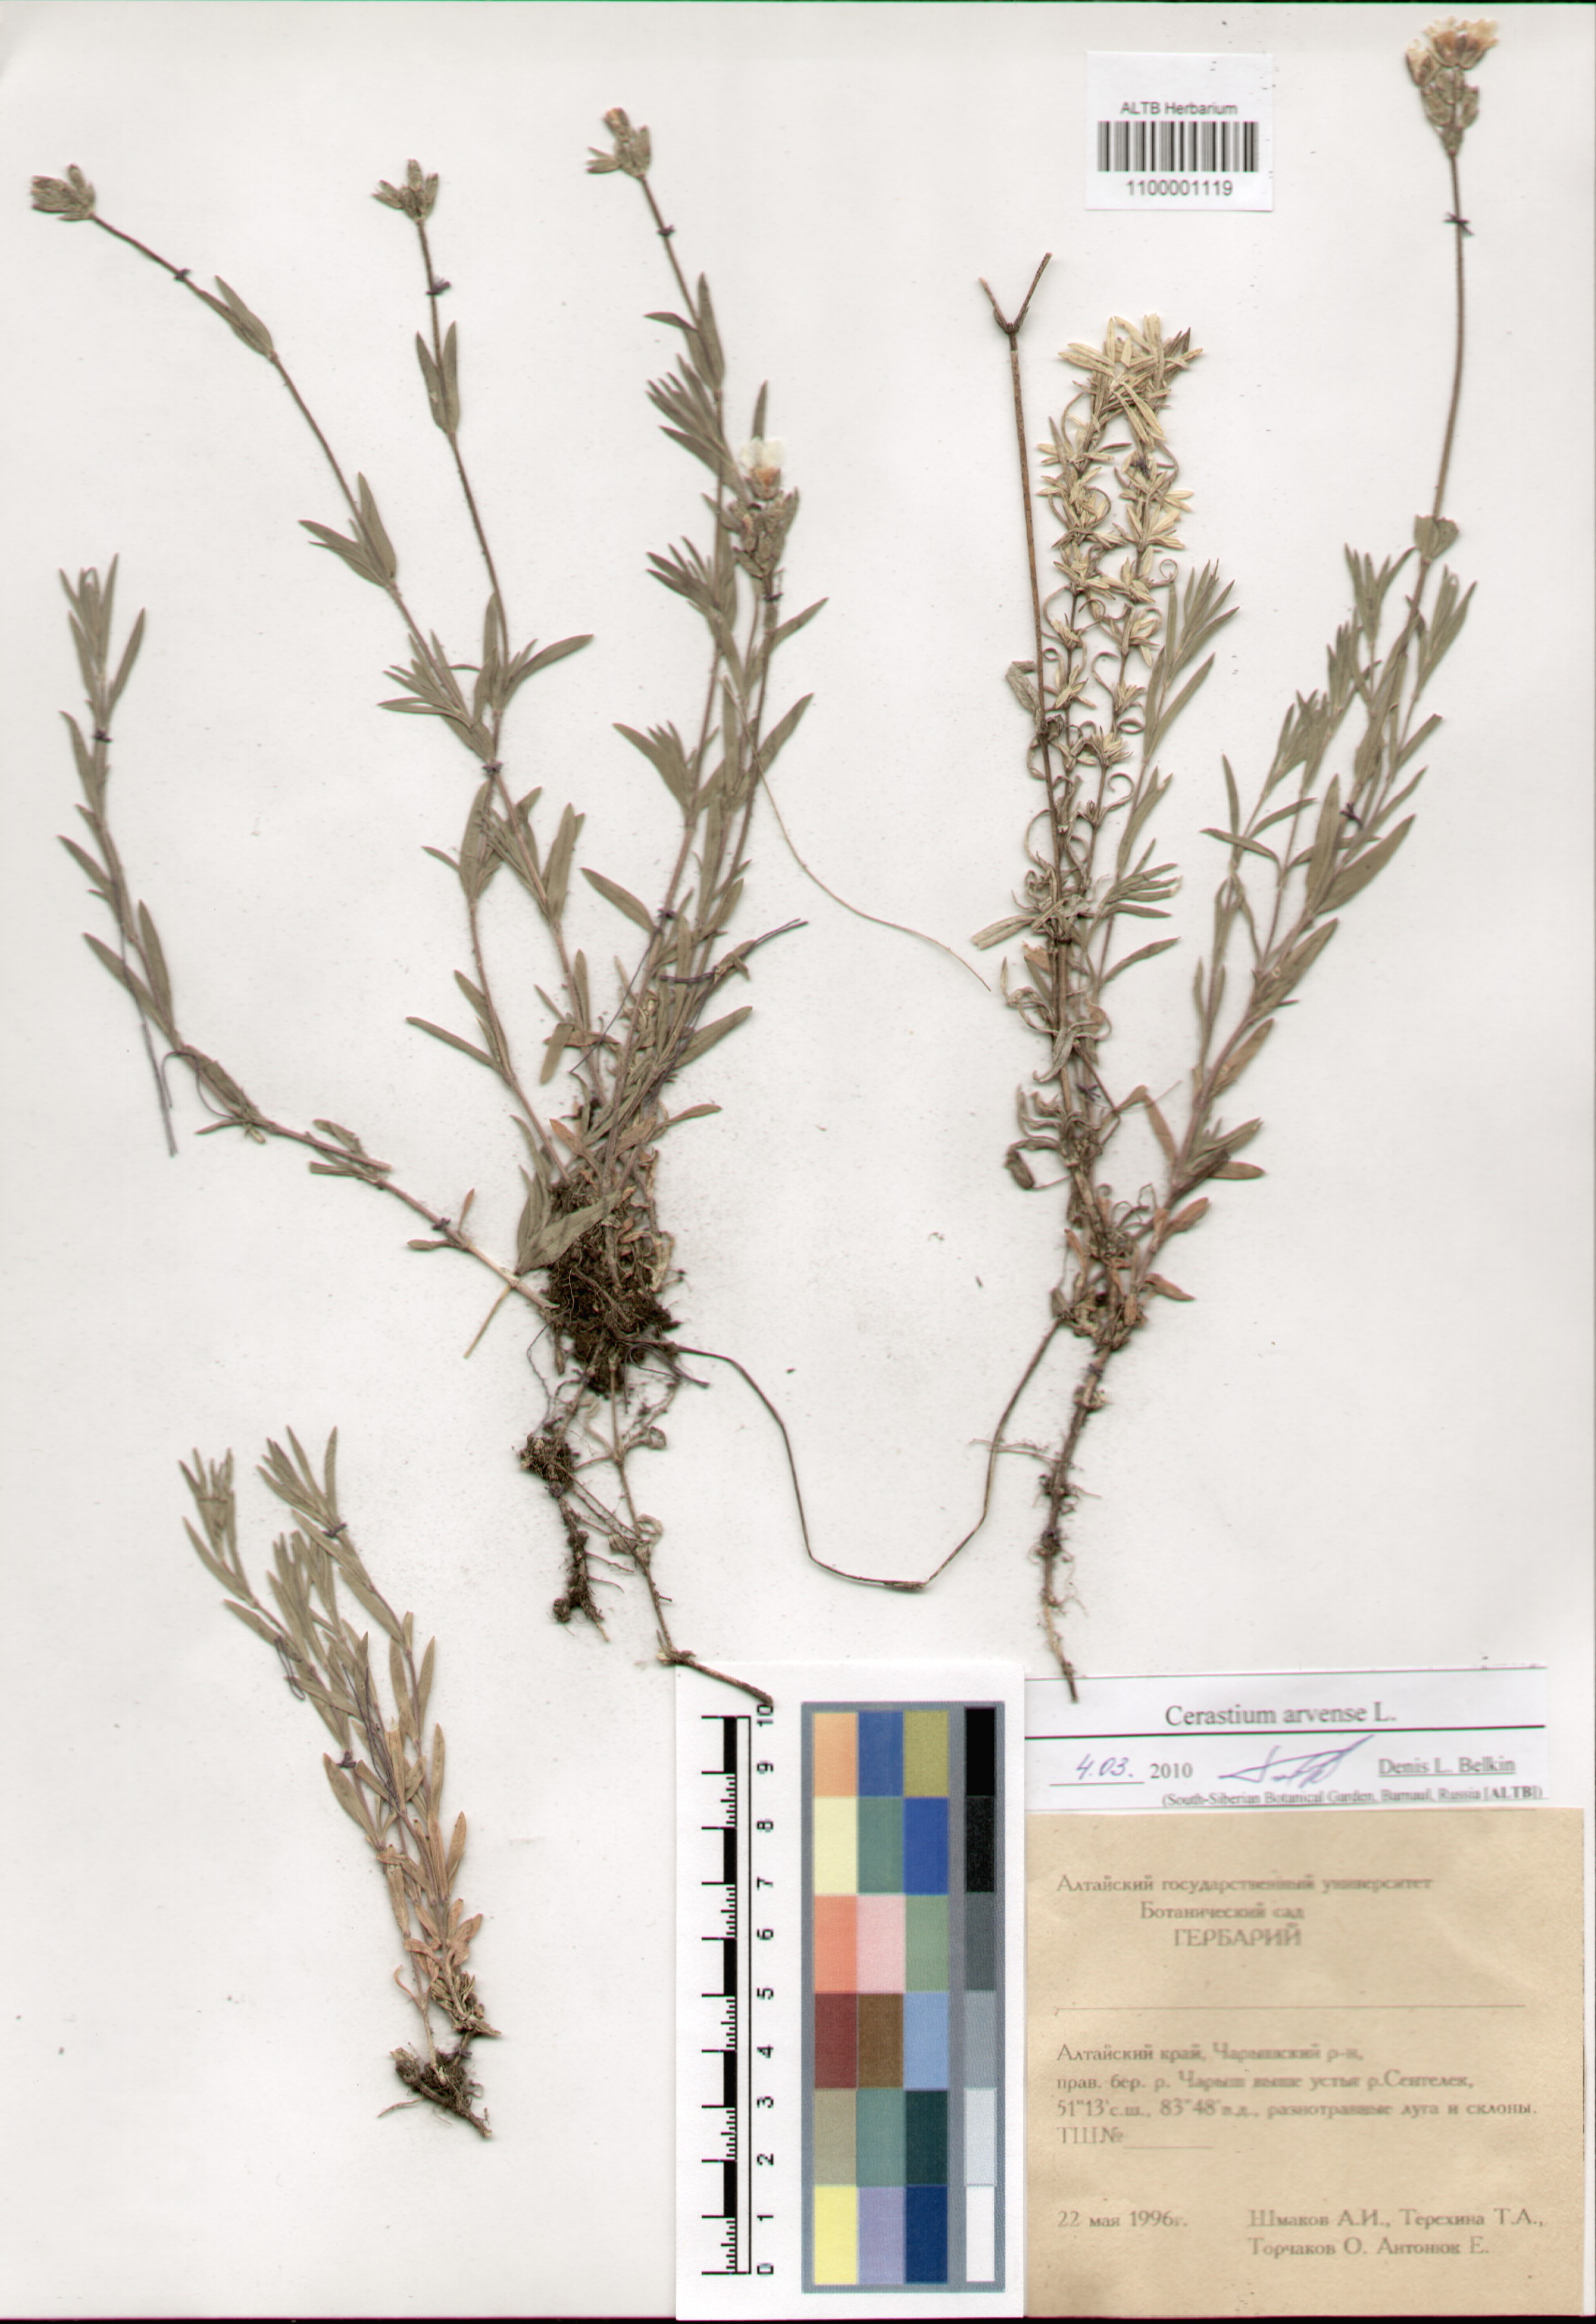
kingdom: Plantae
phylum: Tracheophyta
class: Magnoliopsida
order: Caryophyllales
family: Caryophyllaceae
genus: Cerastium
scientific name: Cerastium arvense
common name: Field mouse-ear
